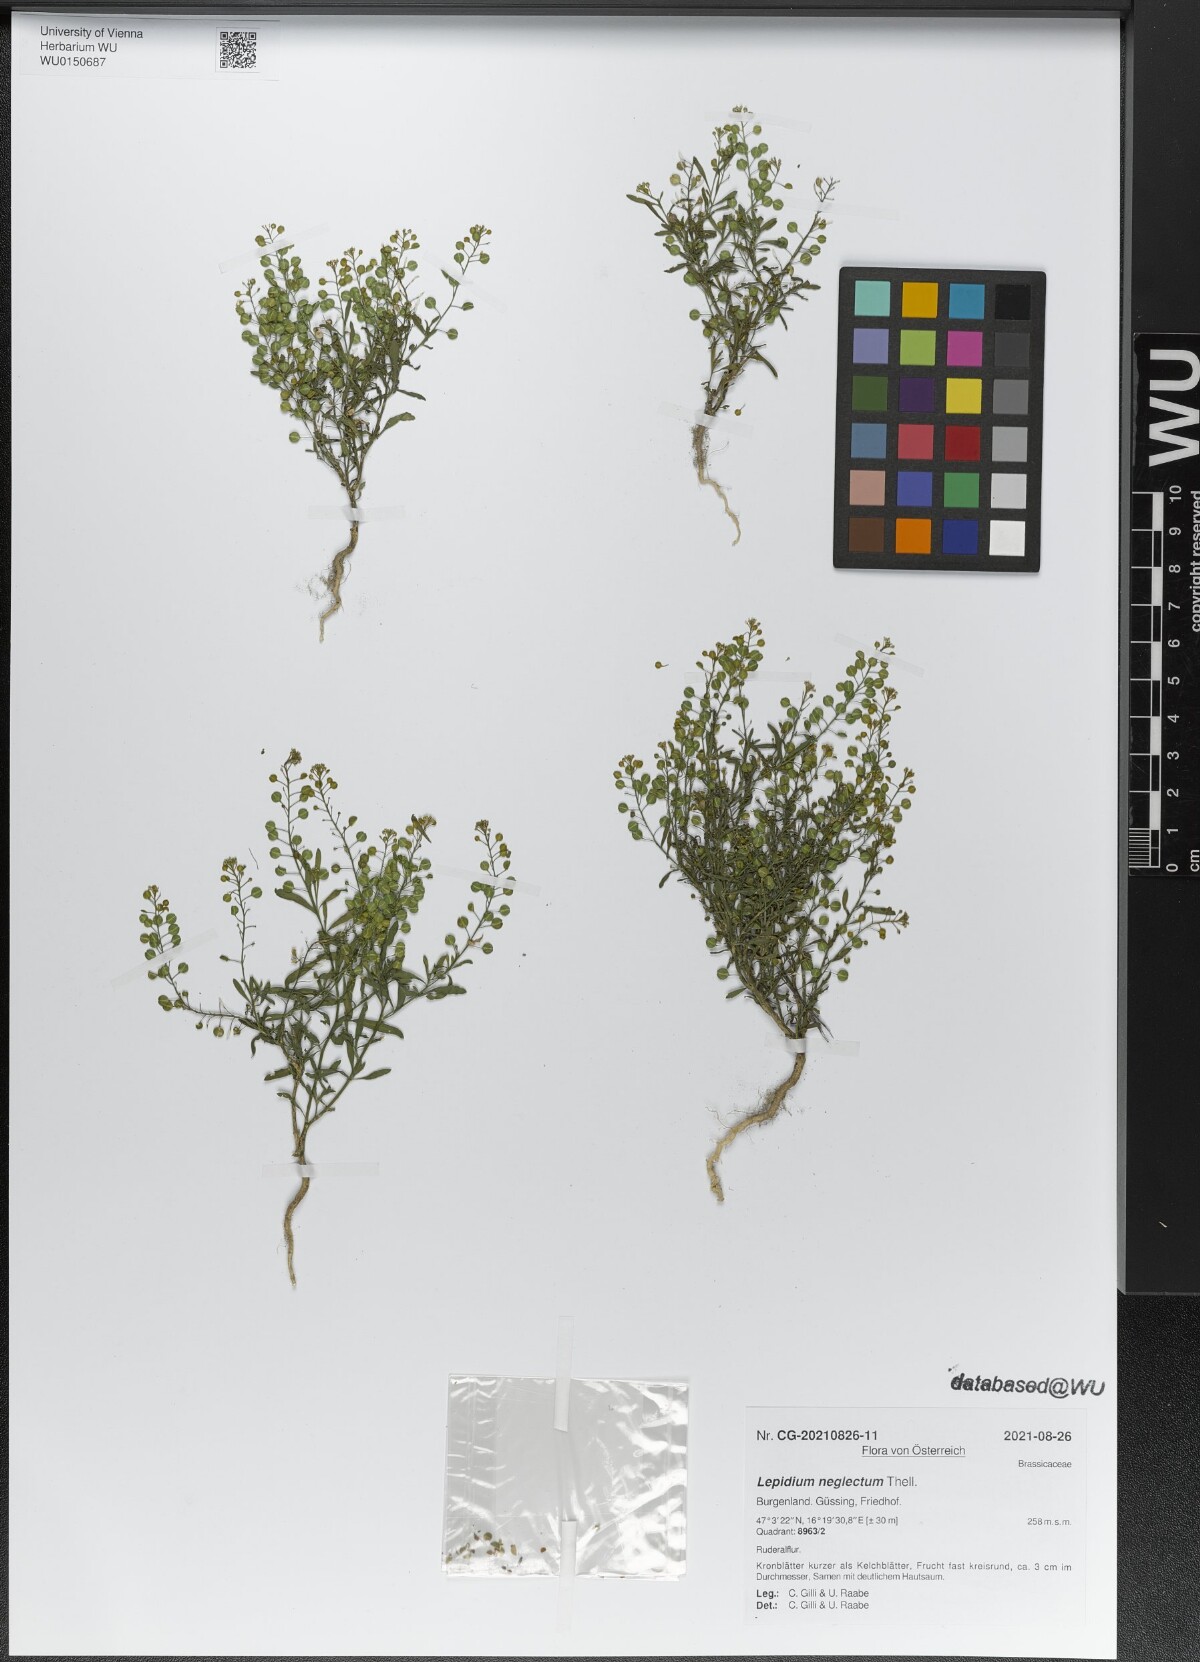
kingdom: Plantae
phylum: Tracheophyta
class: Magnoliopsida
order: Brassicales
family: Brassicaceae
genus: Lepidium
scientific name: Lepidium densiflorum
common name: Miner's pepperwort
